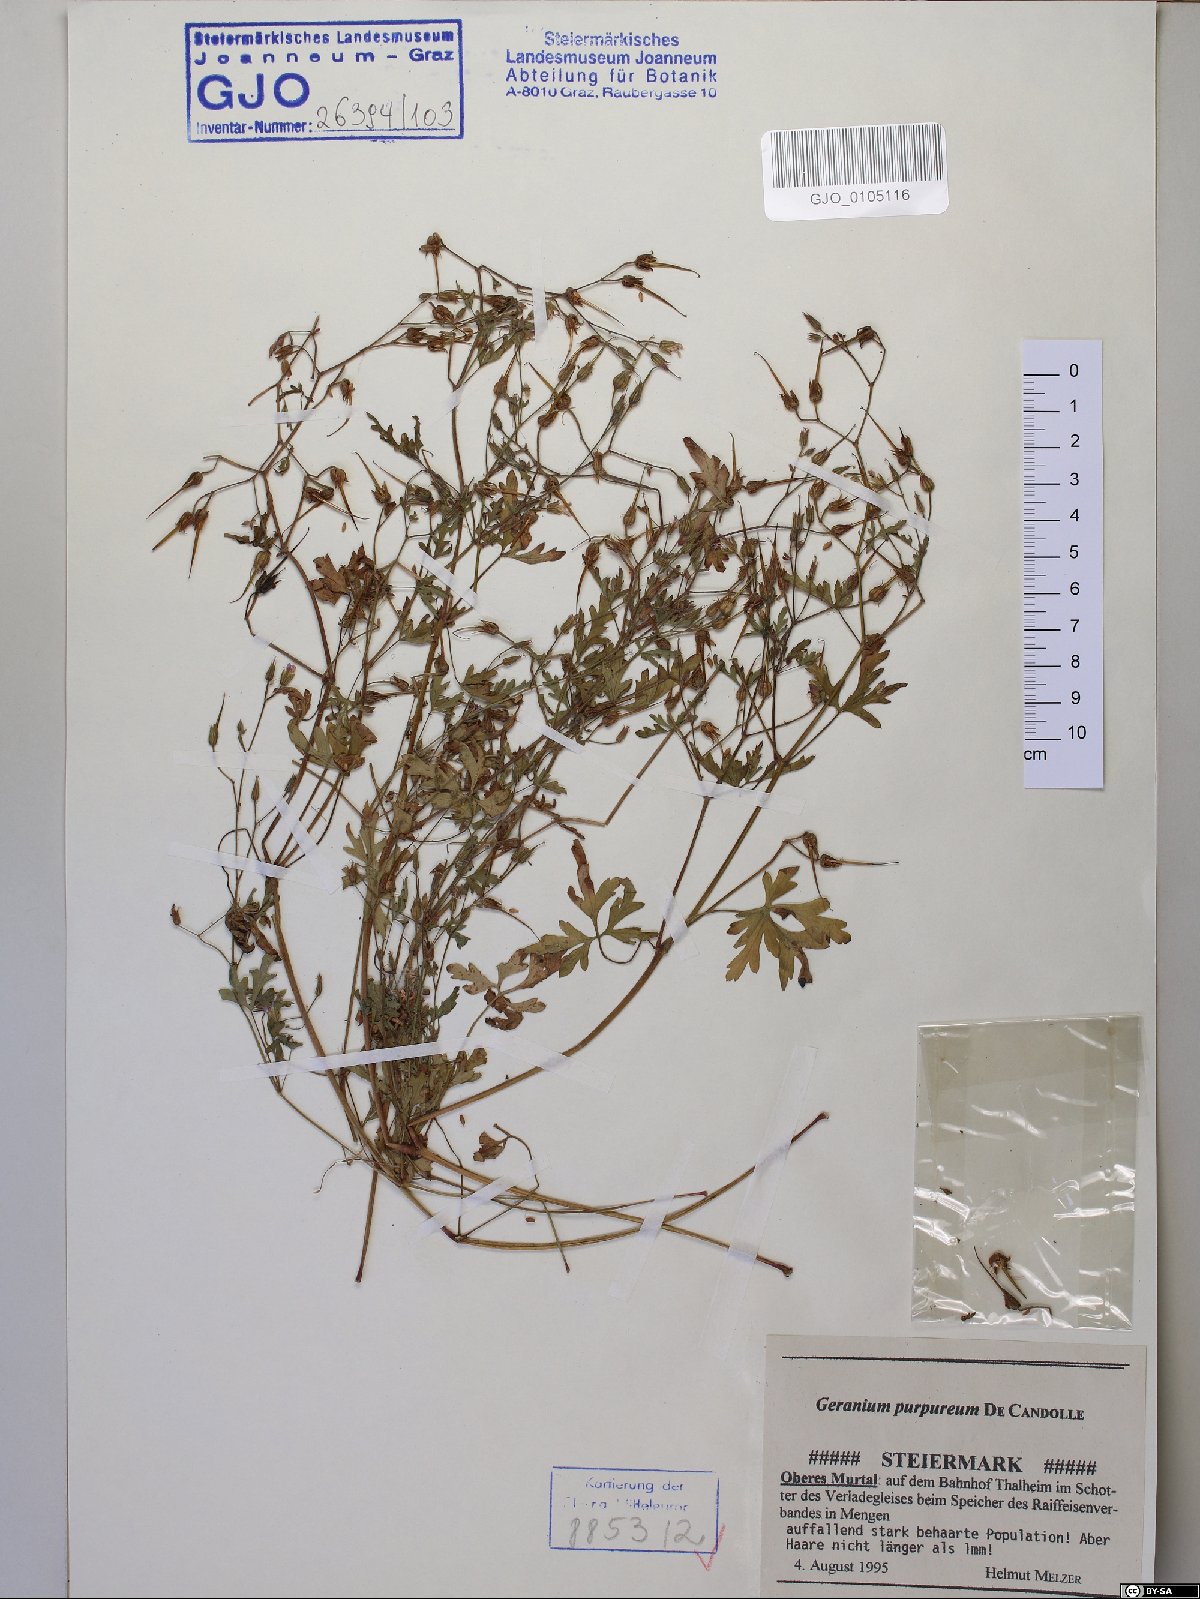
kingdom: Plantae
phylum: Tracheophyta
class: Magnoliopsida
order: Geraniales
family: Geraniaceae
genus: Geranium
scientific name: Geranium purpureum
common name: Little-robin
